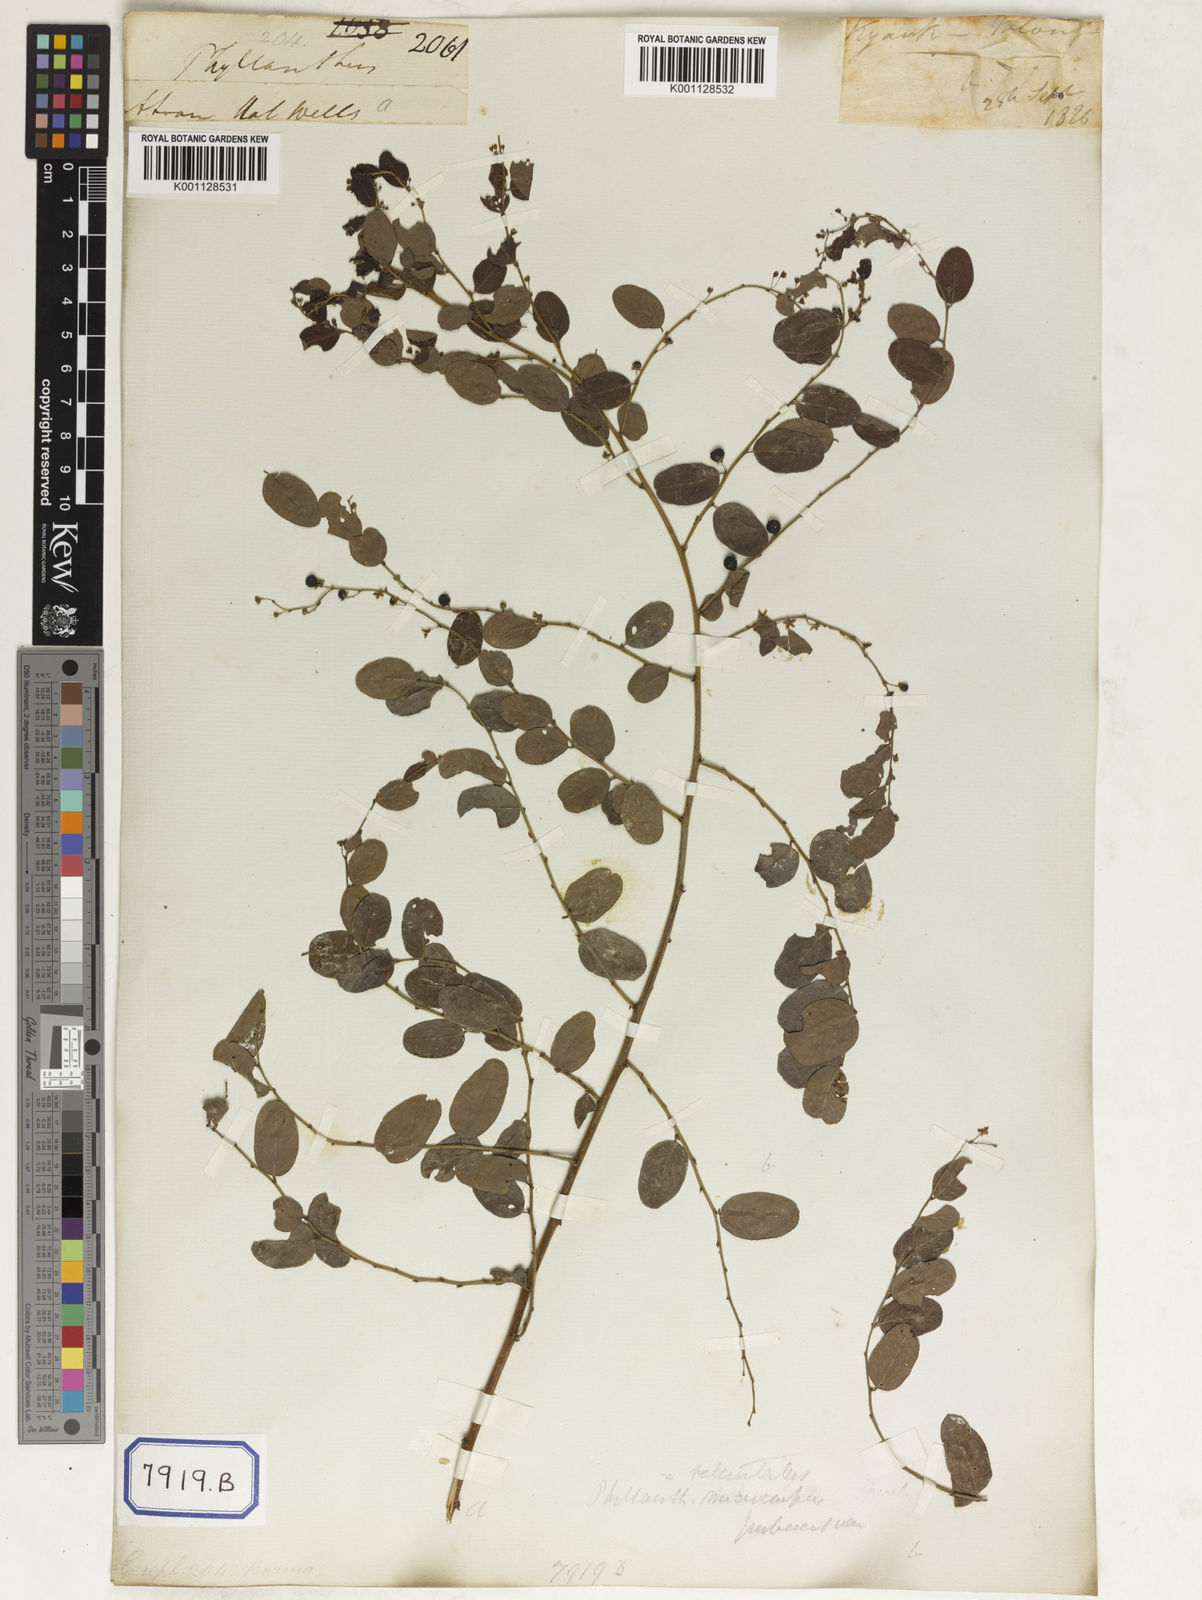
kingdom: Plantae
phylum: Tracheophyta
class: Magnoliopsida
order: Malpighiales
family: Phyllanthaceae
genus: Phyllanthus
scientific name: Phyllanthus
